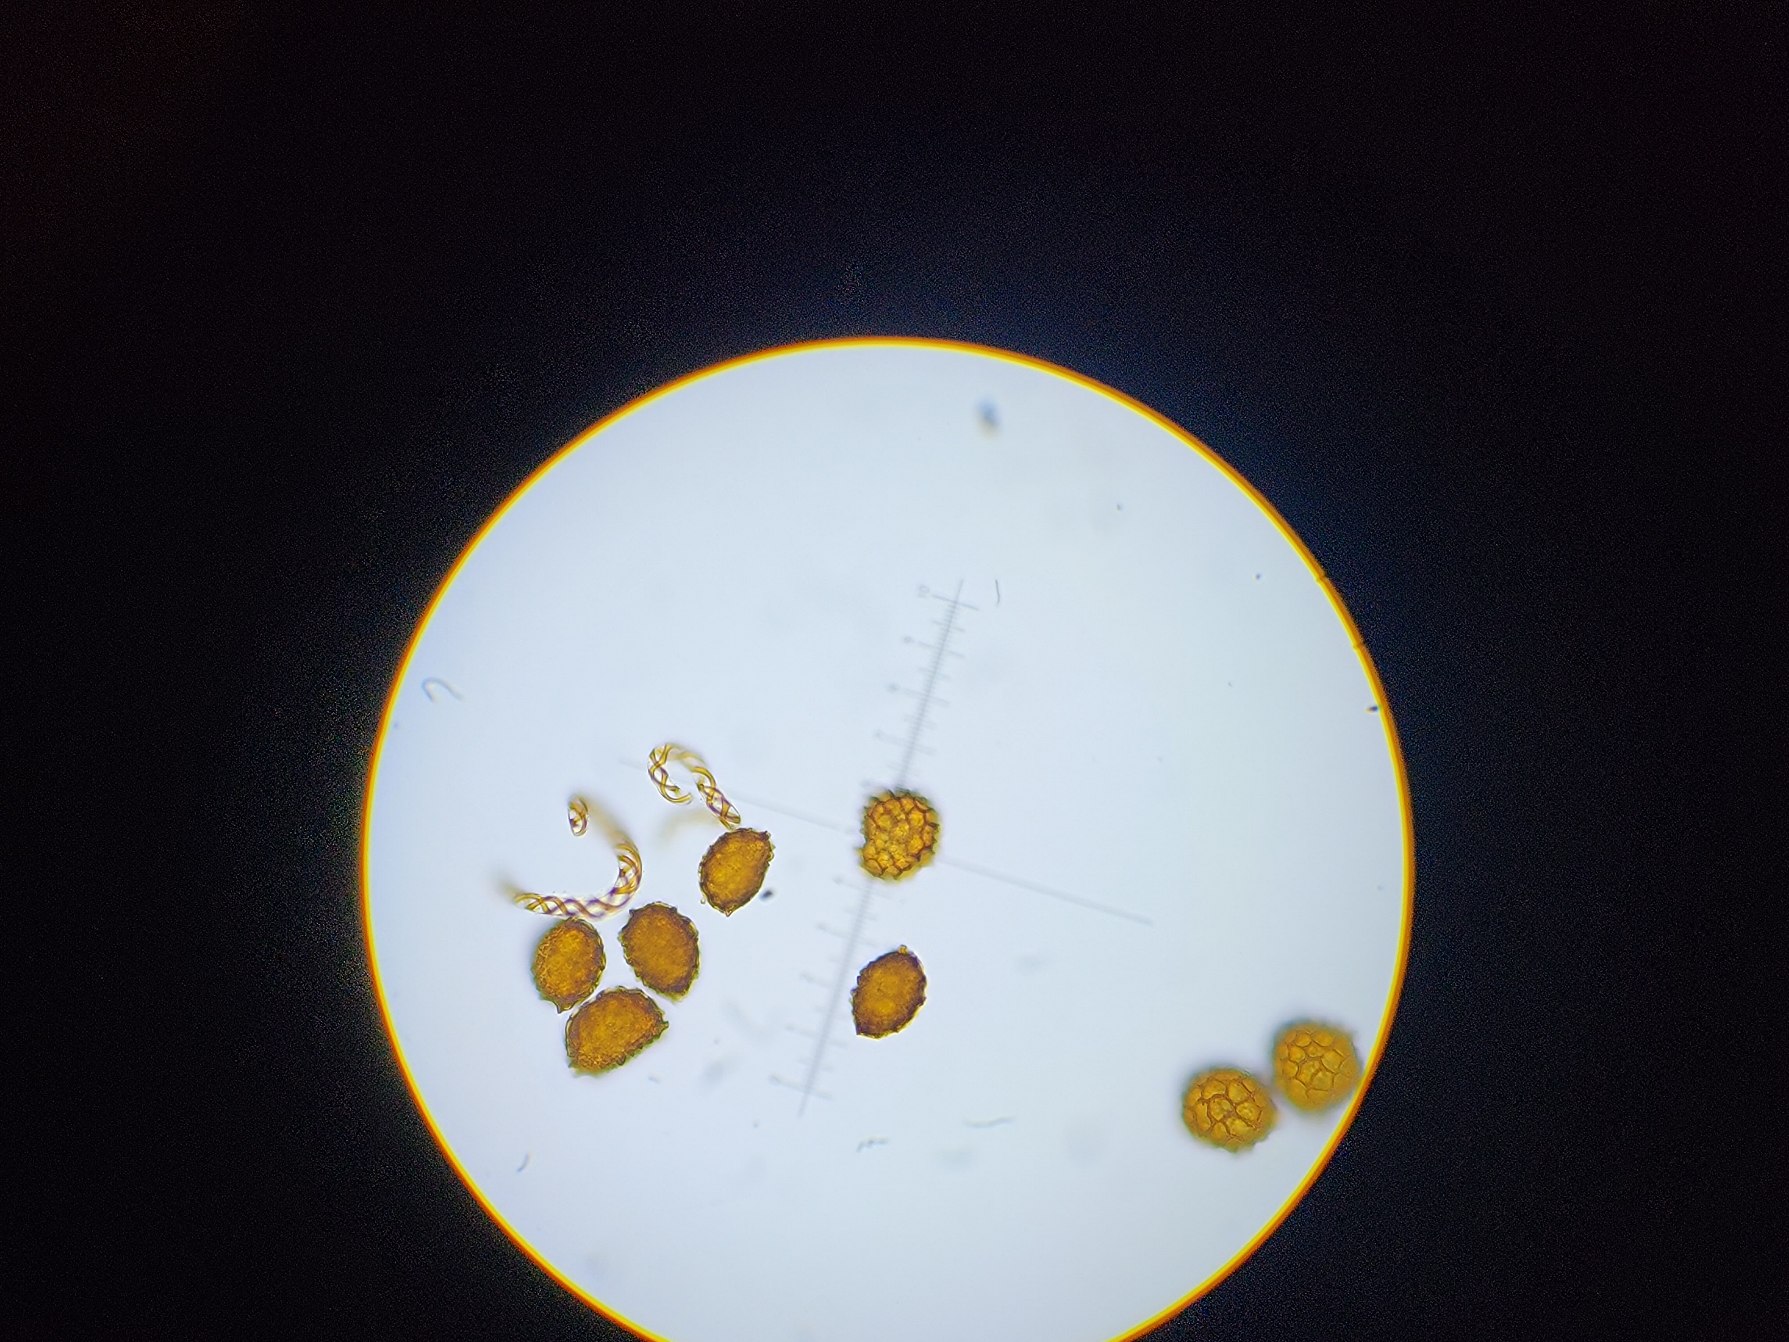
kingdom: Plantae
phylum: Marchantiophyta
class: Jungermanniopsida
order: Fossombroniales
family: Fossombroniaceae
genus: Fossombronia
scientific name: Fossombronia foveolata
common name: Netsporet klokkesvøb
